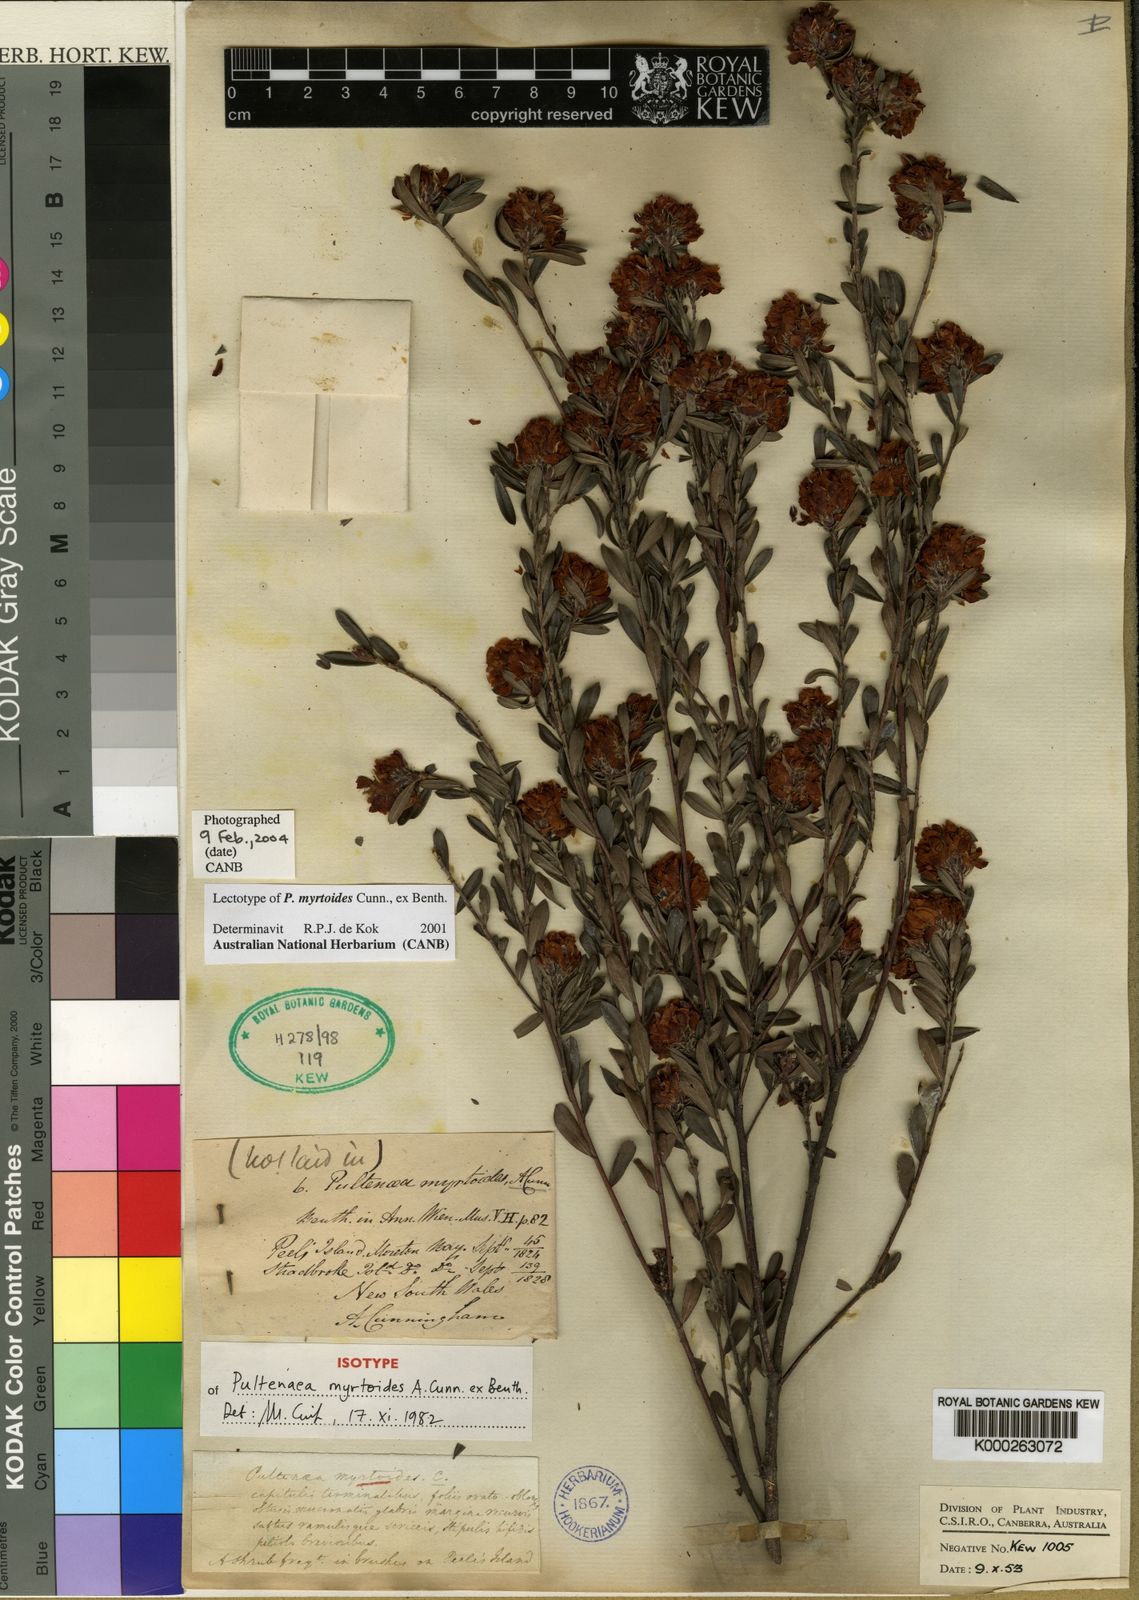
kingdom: Plantae
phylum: Tracheophyta
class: Magnoliopsida
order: Fabales
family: Fabaceae
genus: Pultenaea
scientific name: Pultenaea myrtoides
